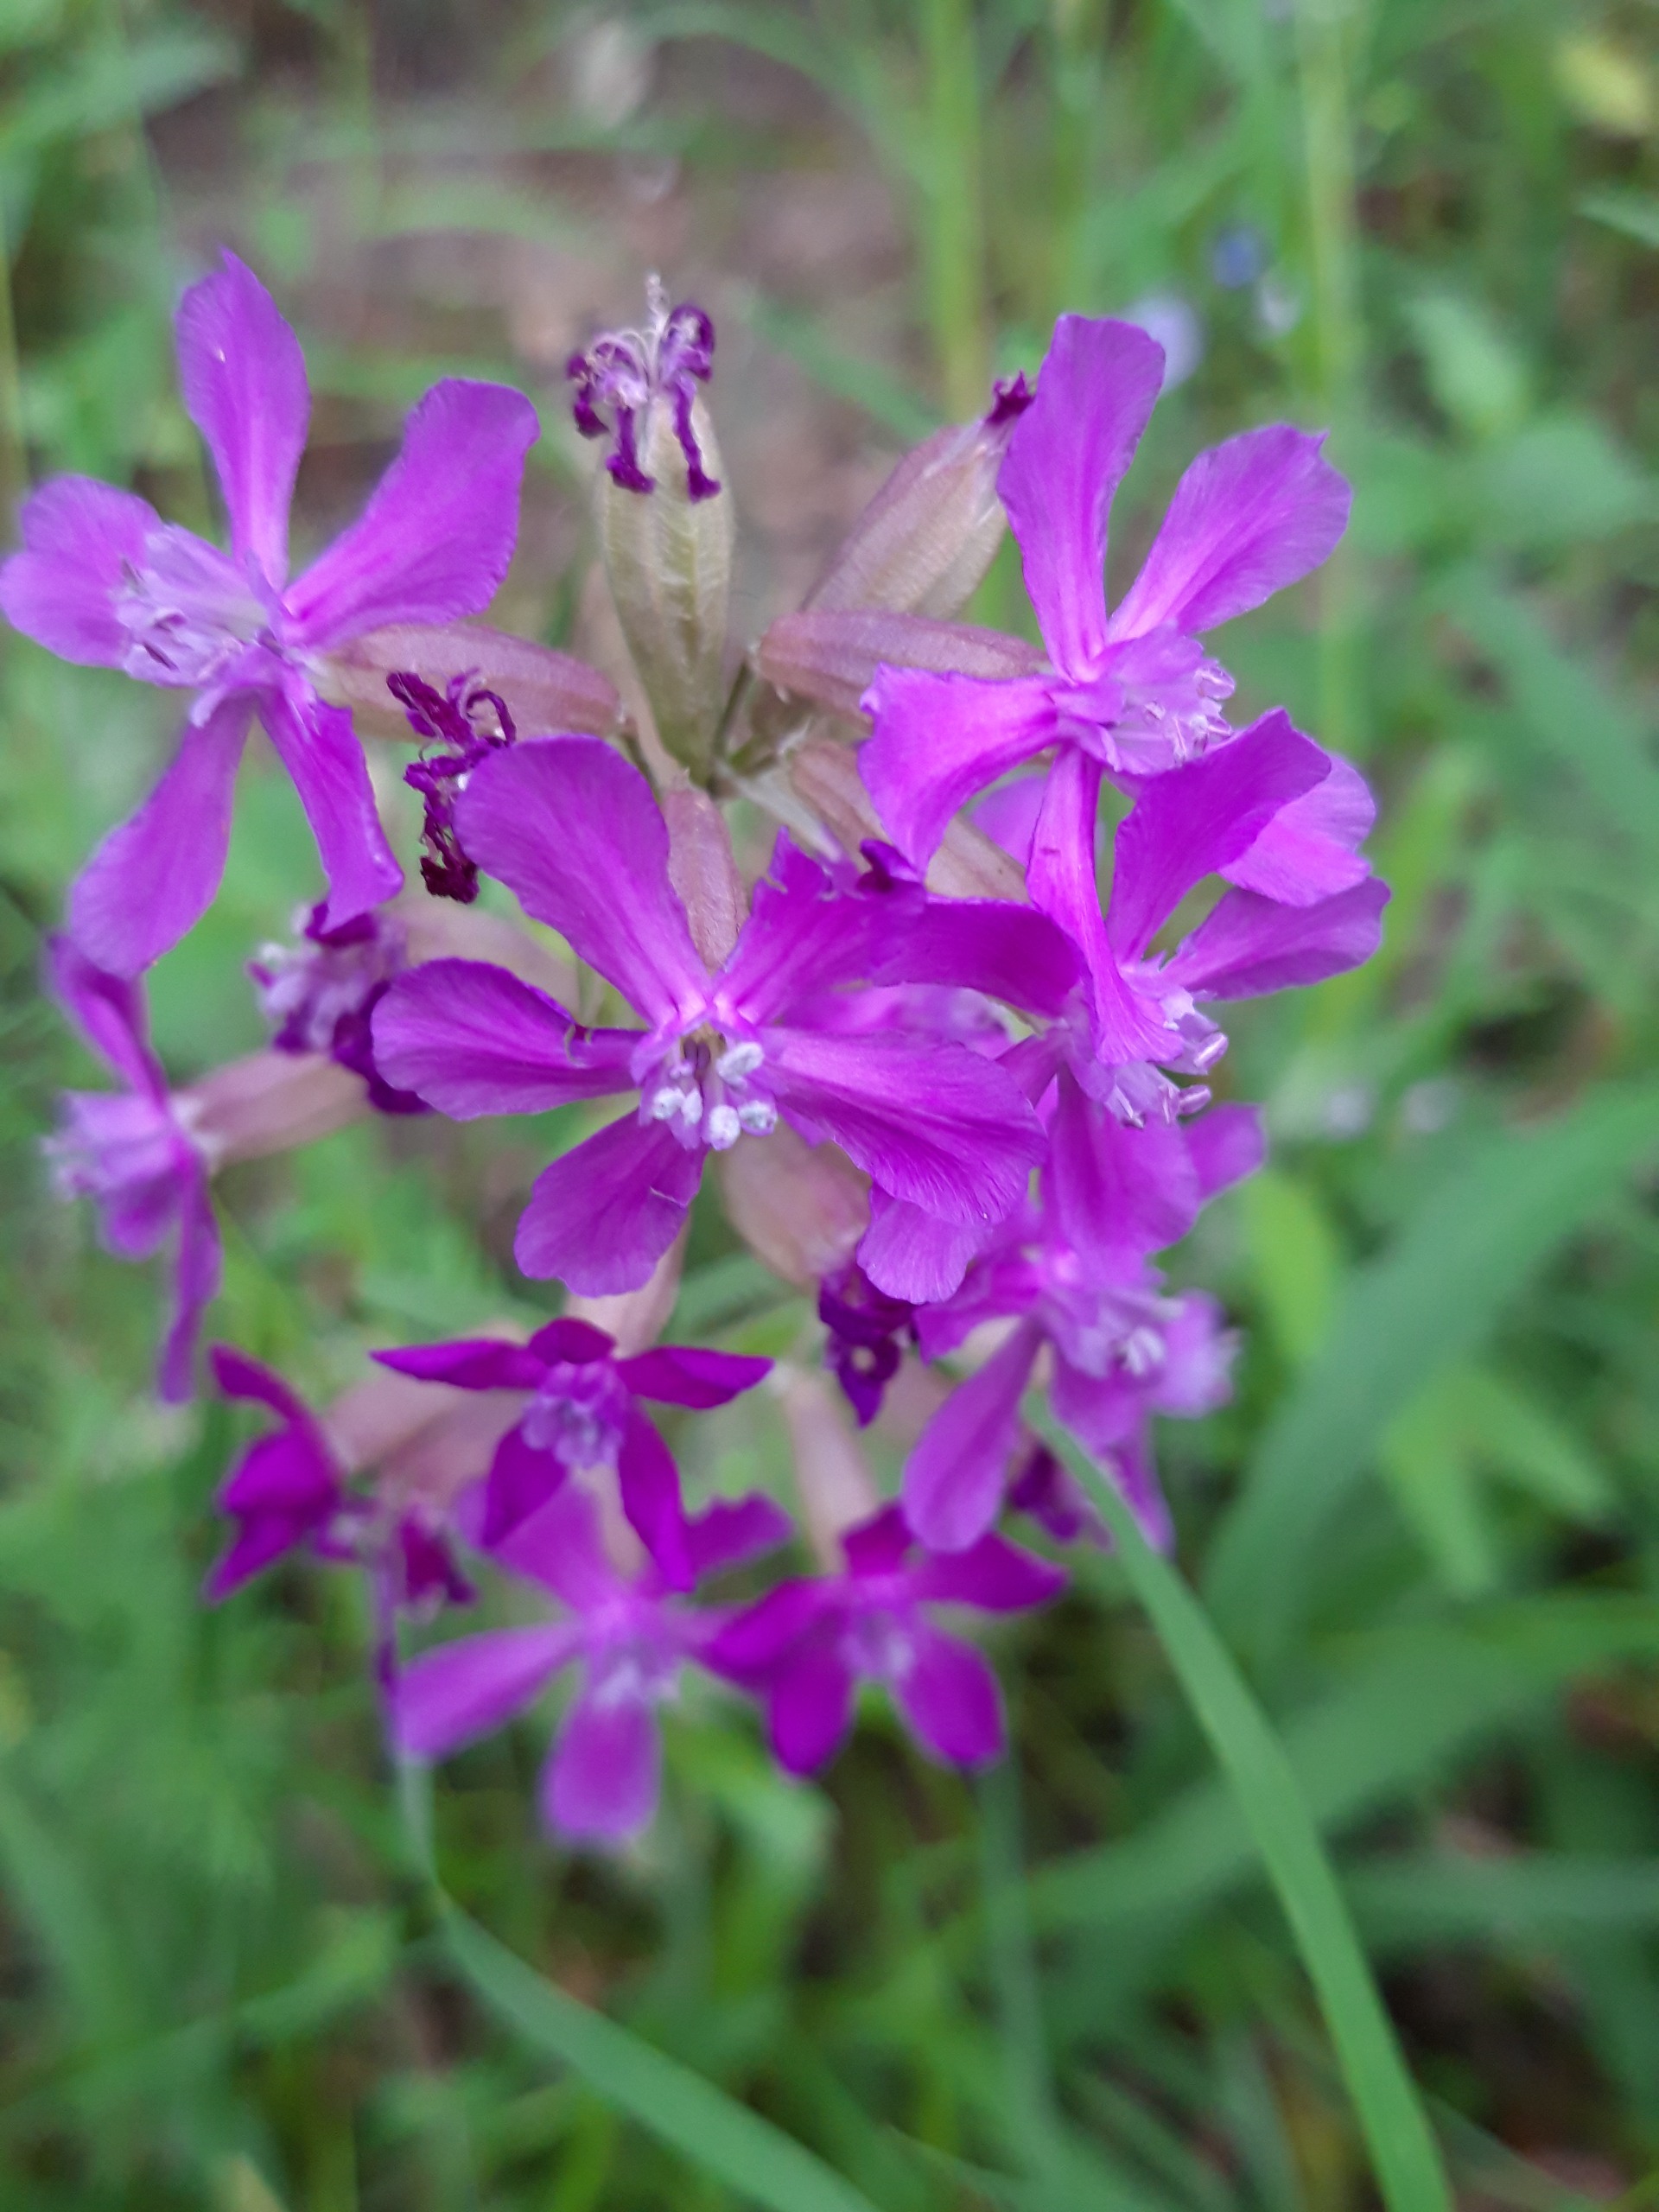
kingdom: Plantae
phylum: Tracheophyta
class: Magnoliopsida
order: Caryophyllales
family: Caryophyllaceae
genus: Viscaria
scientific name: Viscaria vulgaris
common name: Tjærenellike
